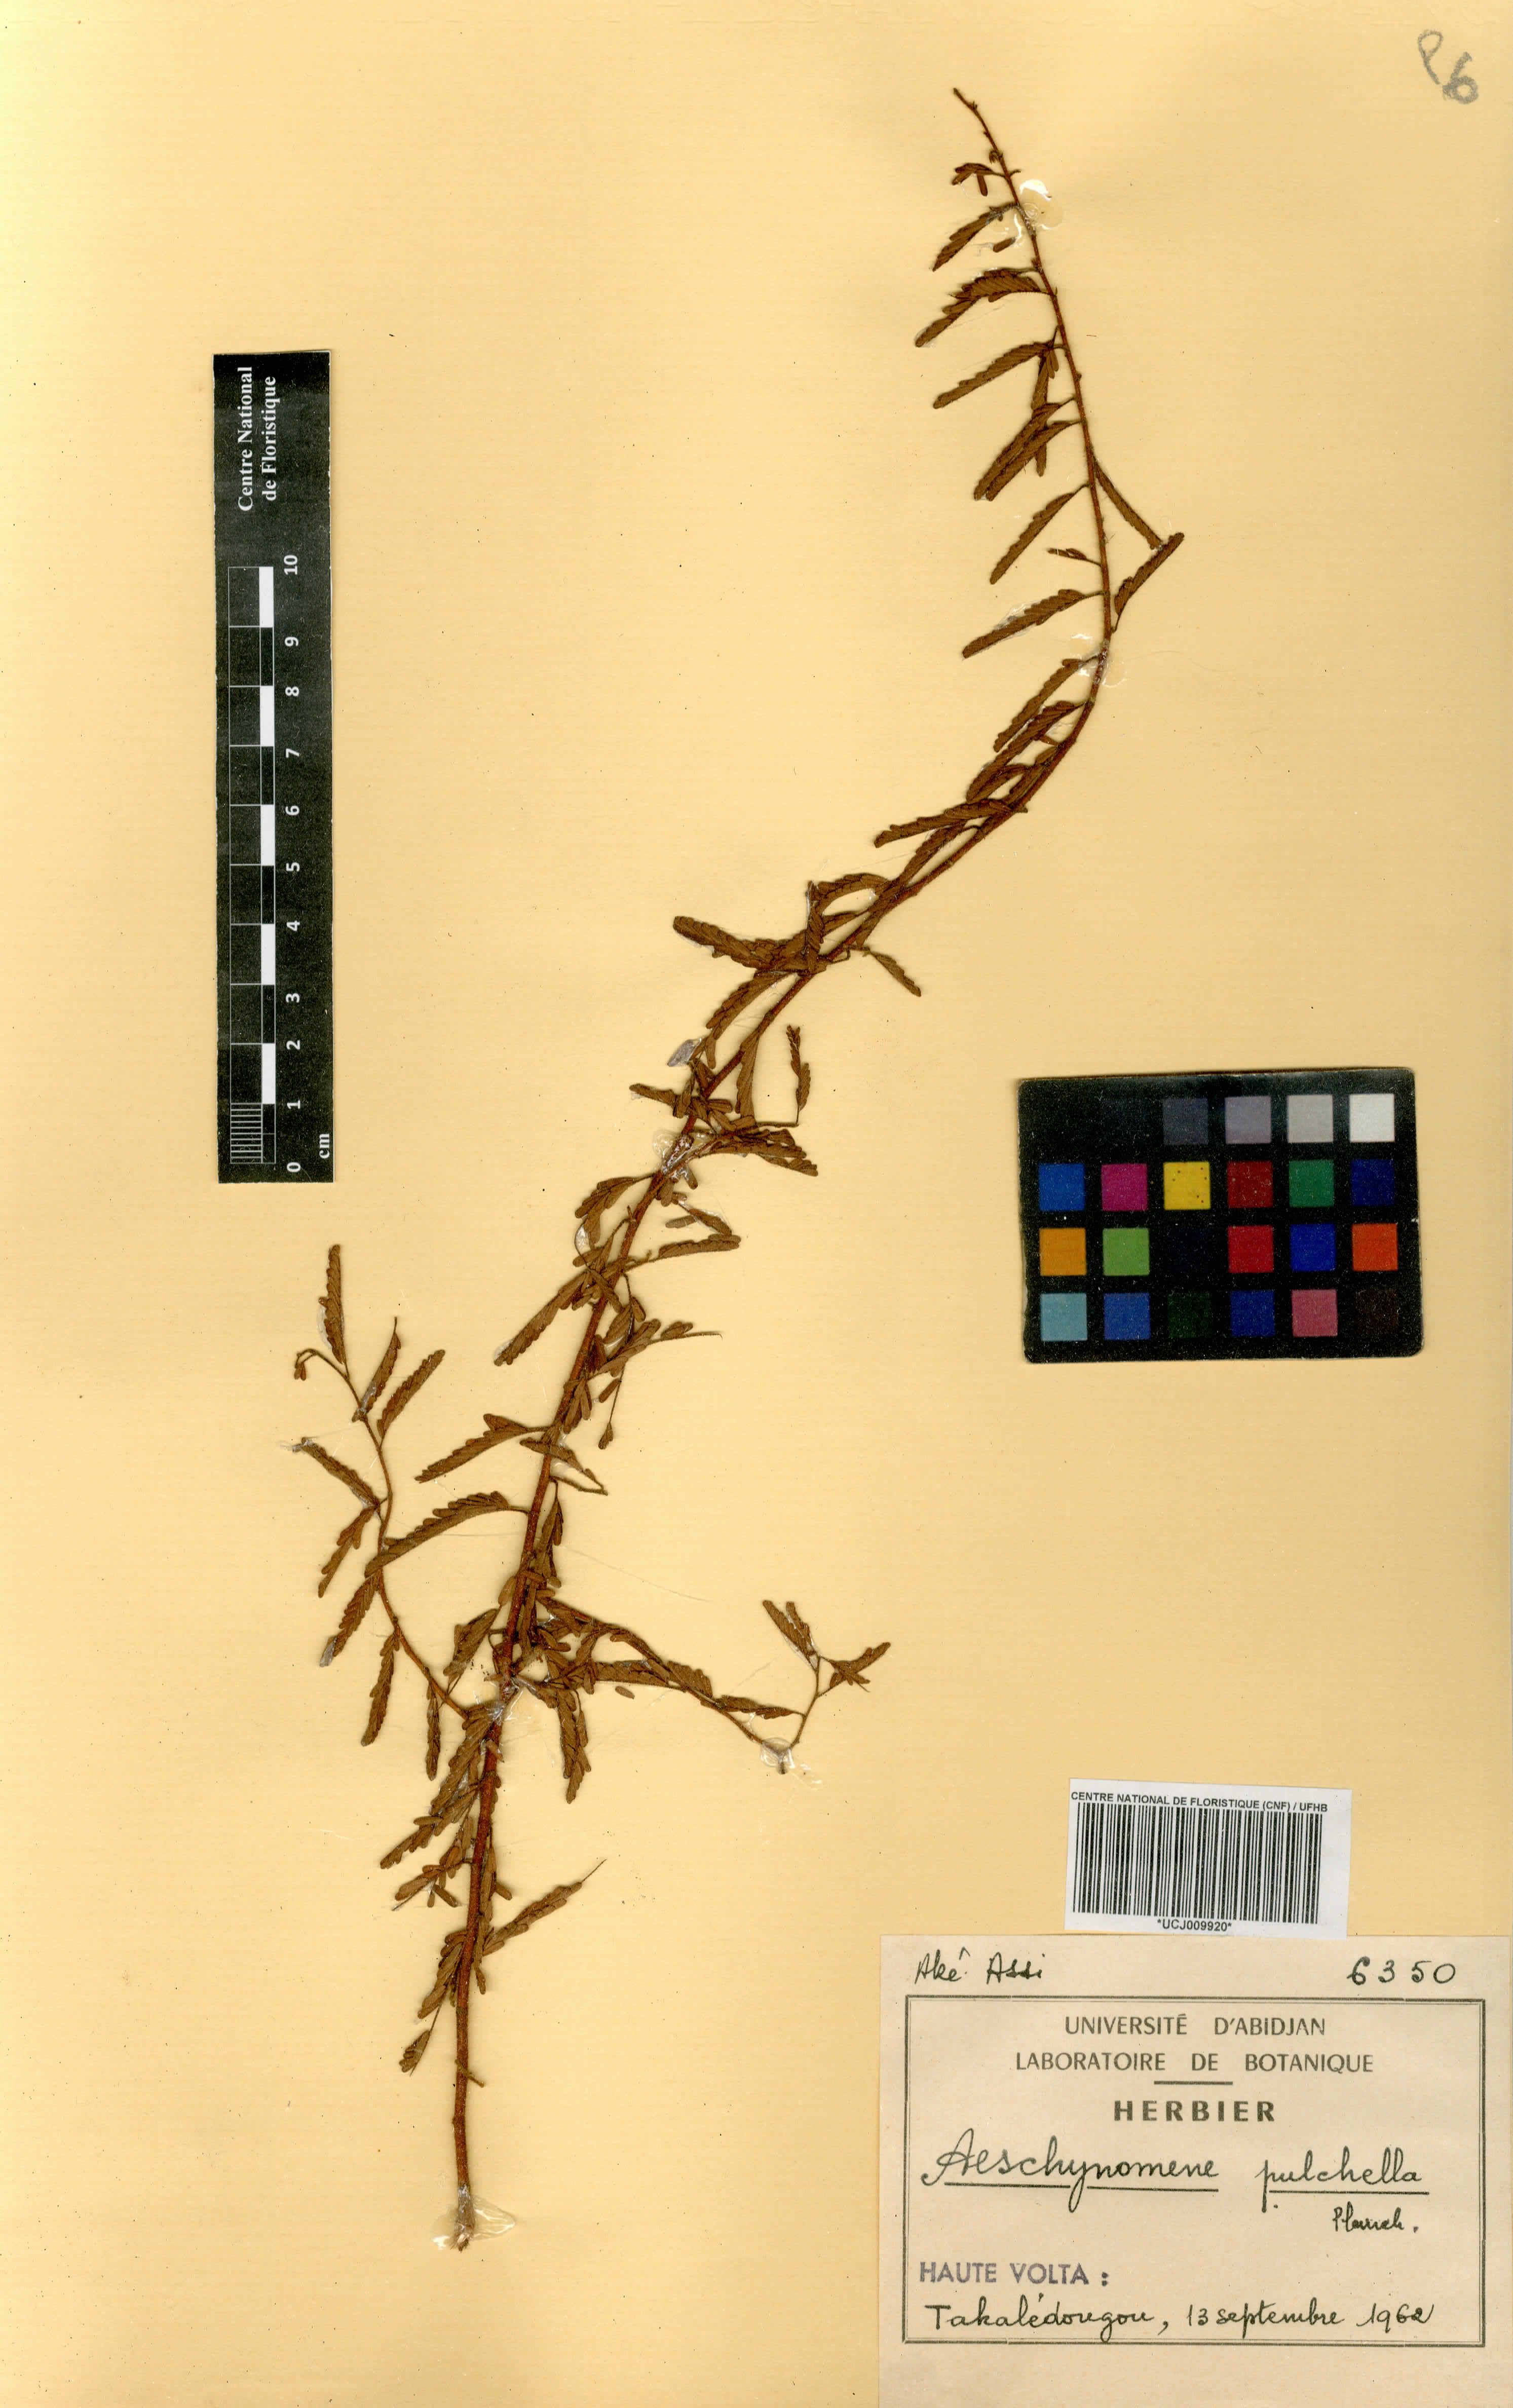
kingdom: Plantae
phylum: Tracheophyta
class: Magnoliopsida
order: Fabales
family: Fabaceae
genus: Aeschynomene
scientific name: Aeschynomene pulchella
